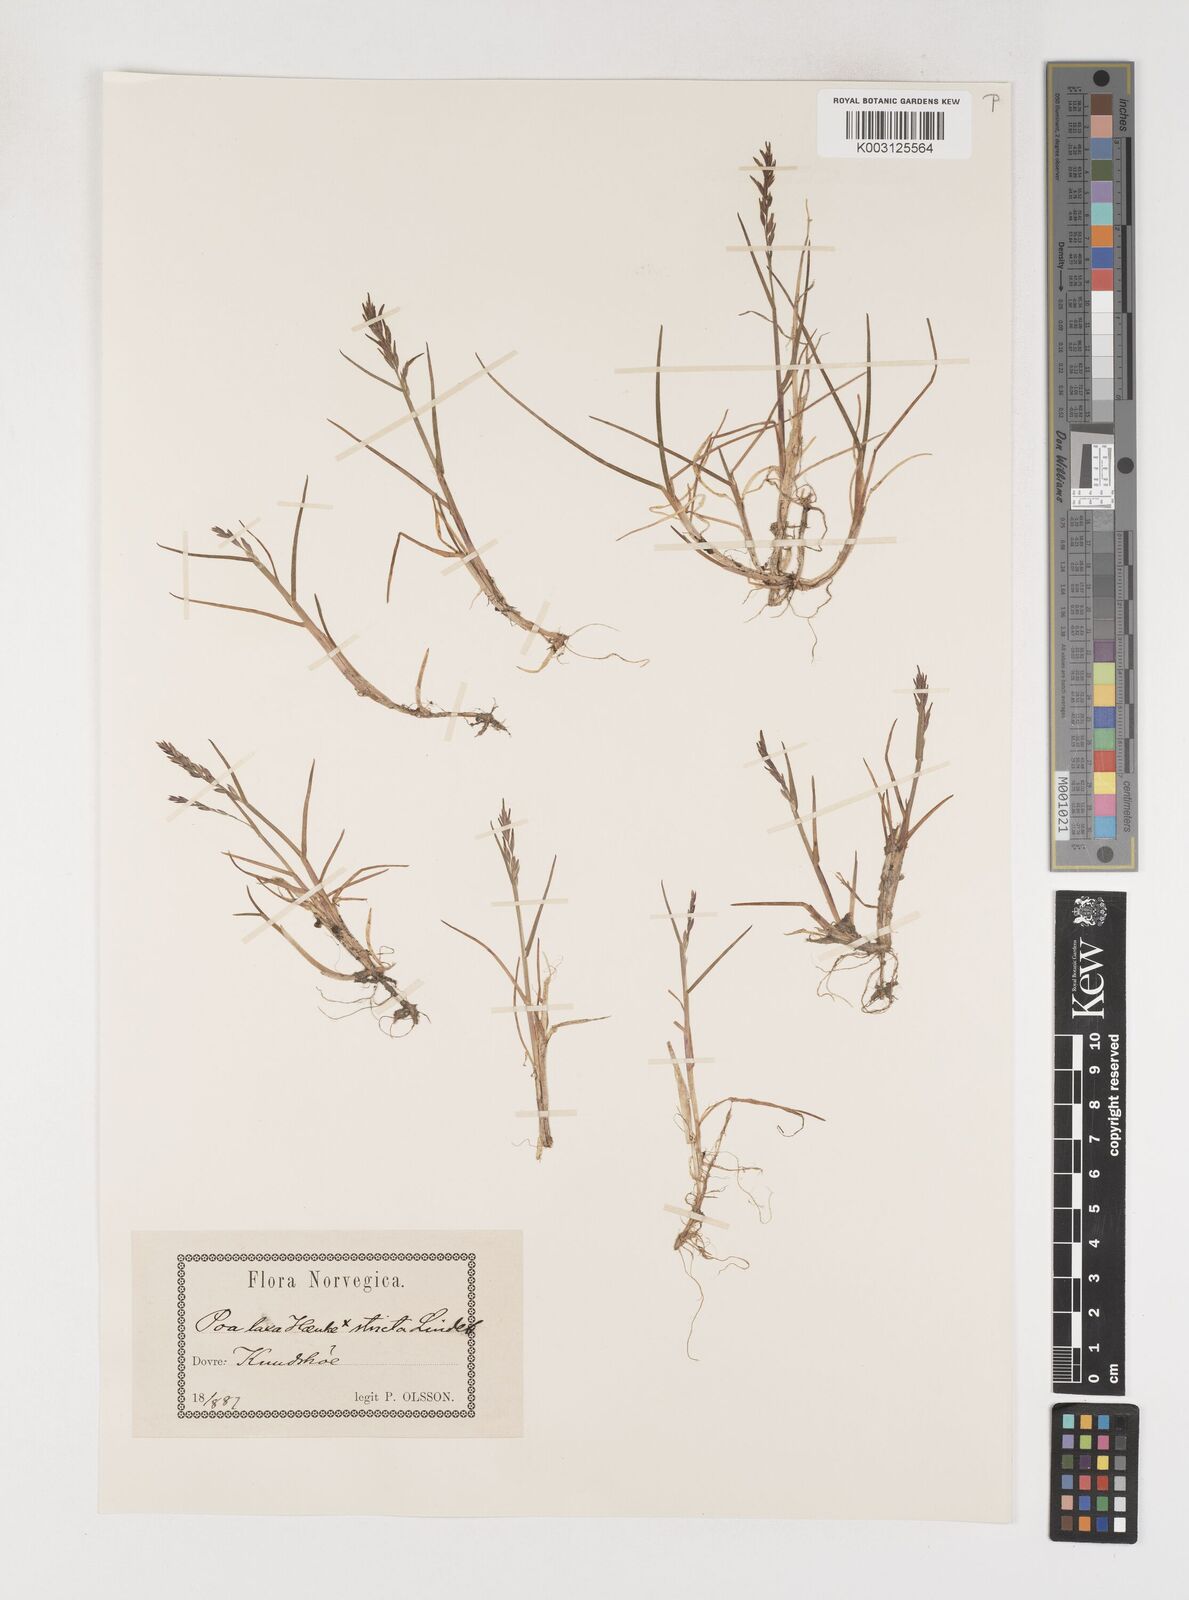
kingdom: Plantae
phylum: Tracheophyta
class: Liliopsida
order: Poales
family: Poaceae
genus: Poa
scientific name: Poa arctica
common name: Arctic bluegrass
